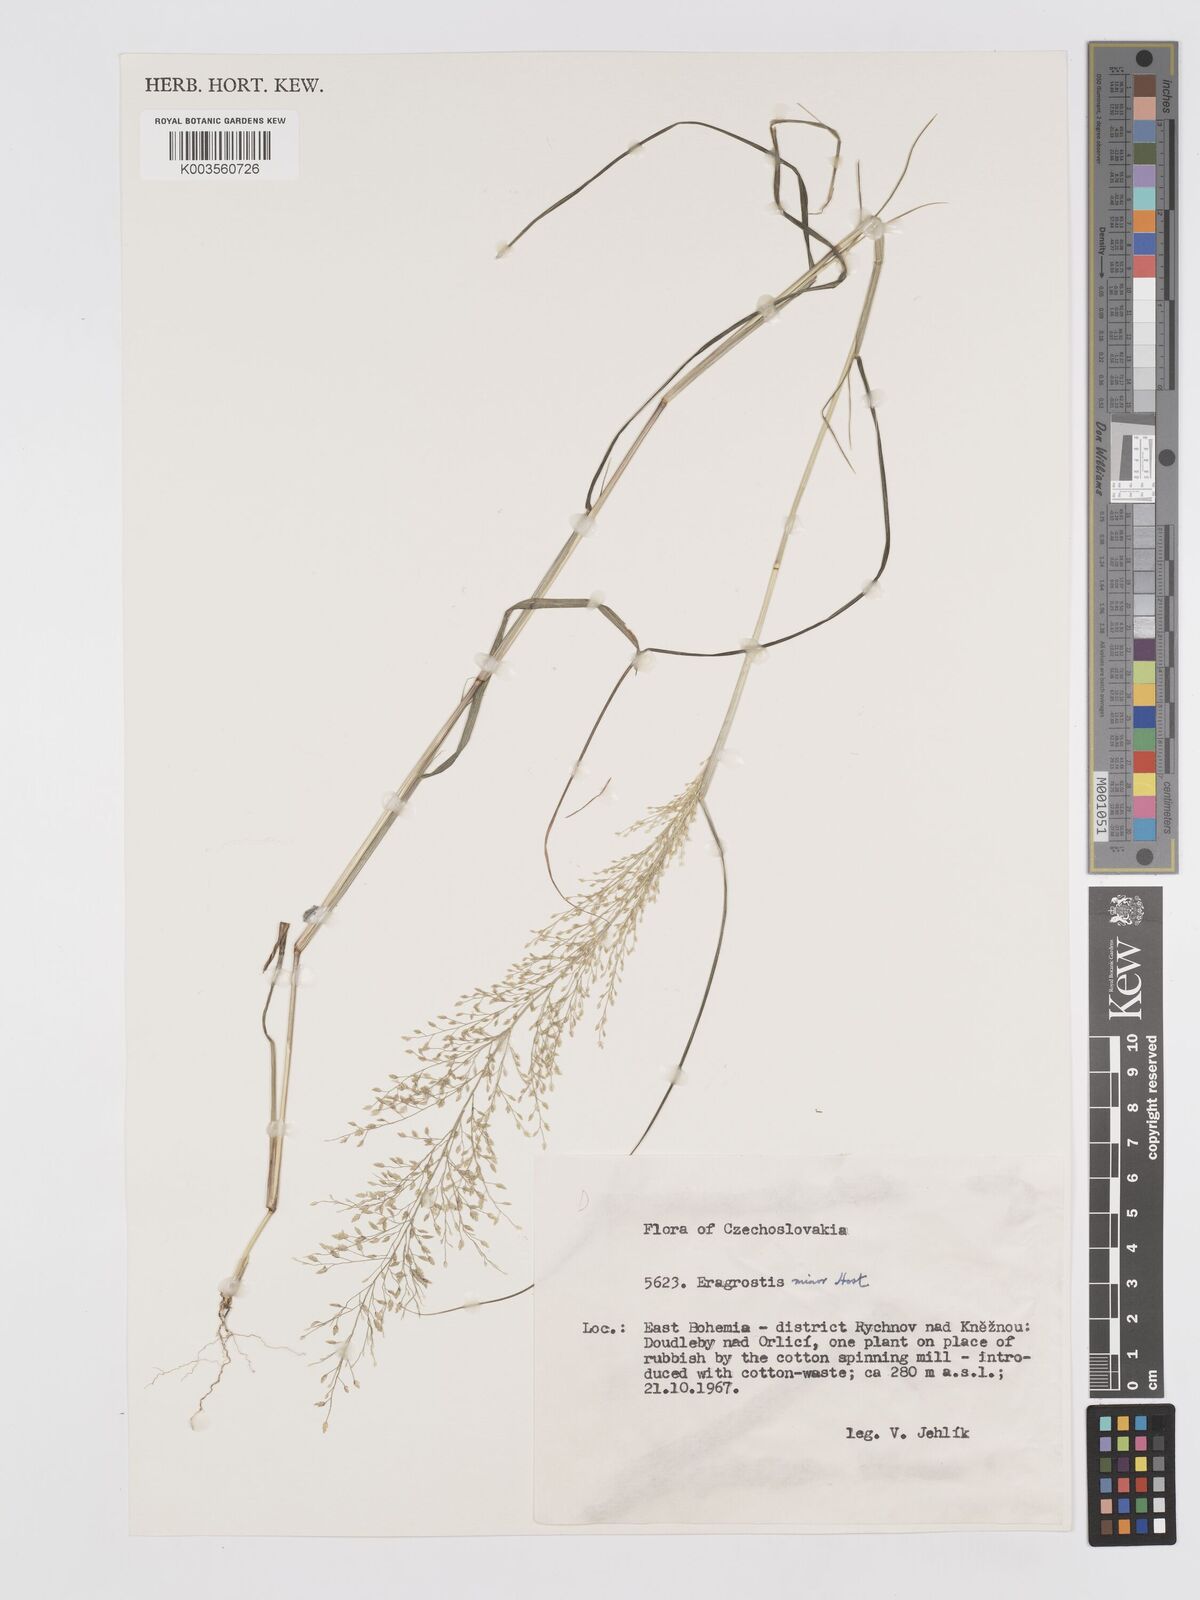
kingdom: Plantae
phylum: Tracheophyta
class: Liliopsida
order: Poales
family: Poaceae
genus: Eragrostis
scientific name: Eragrostis minor
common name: Small love-grass
